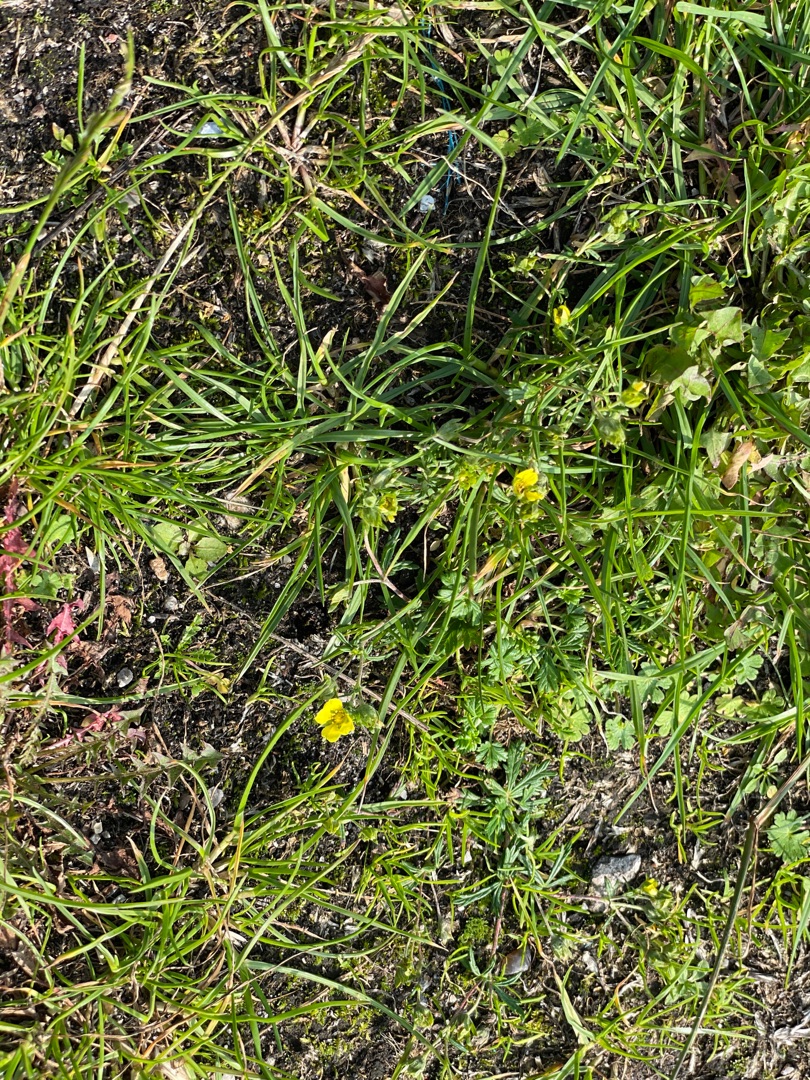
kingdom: Plantae
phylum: Tracheophyta
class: Magnoliopsida
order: Rosales
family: Rosaceae
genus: Potentilla
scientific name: Potentilla argentea
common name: Sølv-potentil
